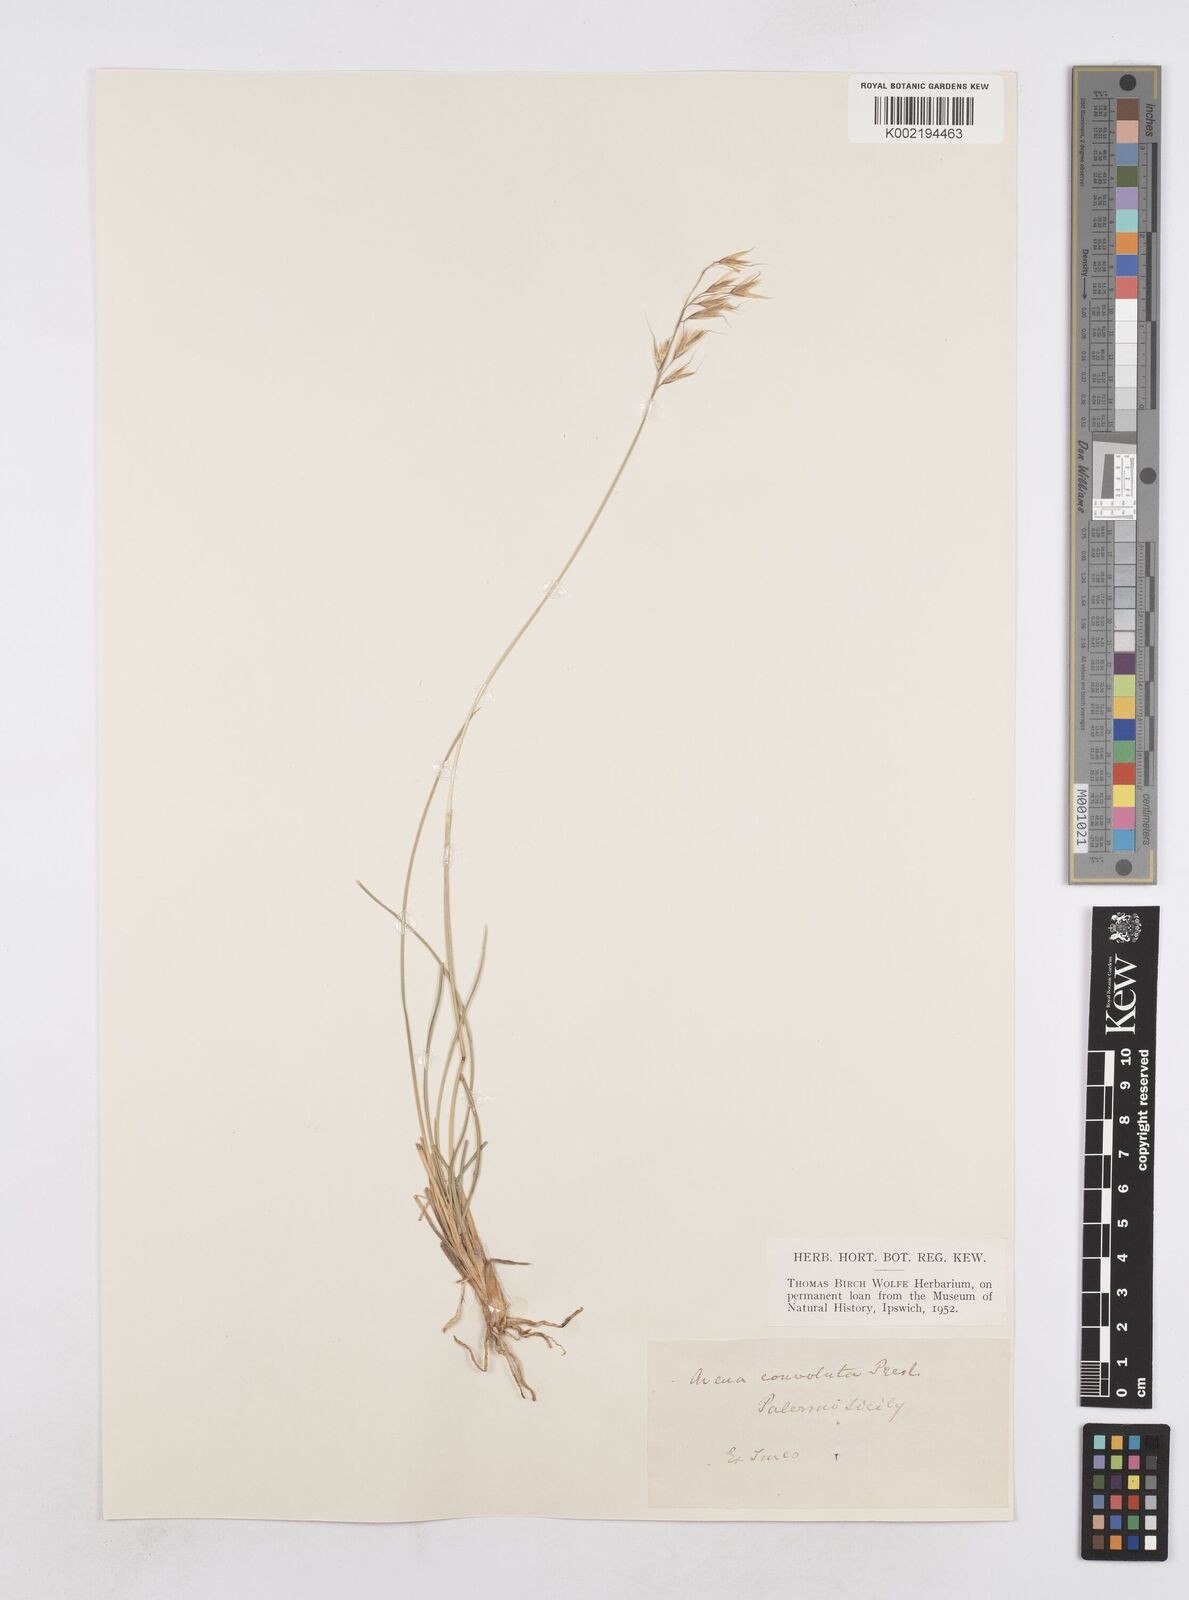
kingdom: Plantae
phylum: Tracheophyta
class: Liliopsida
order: Poales
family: Poaceae
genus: Helictotrichon
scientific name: Helictotrichon convolutum
